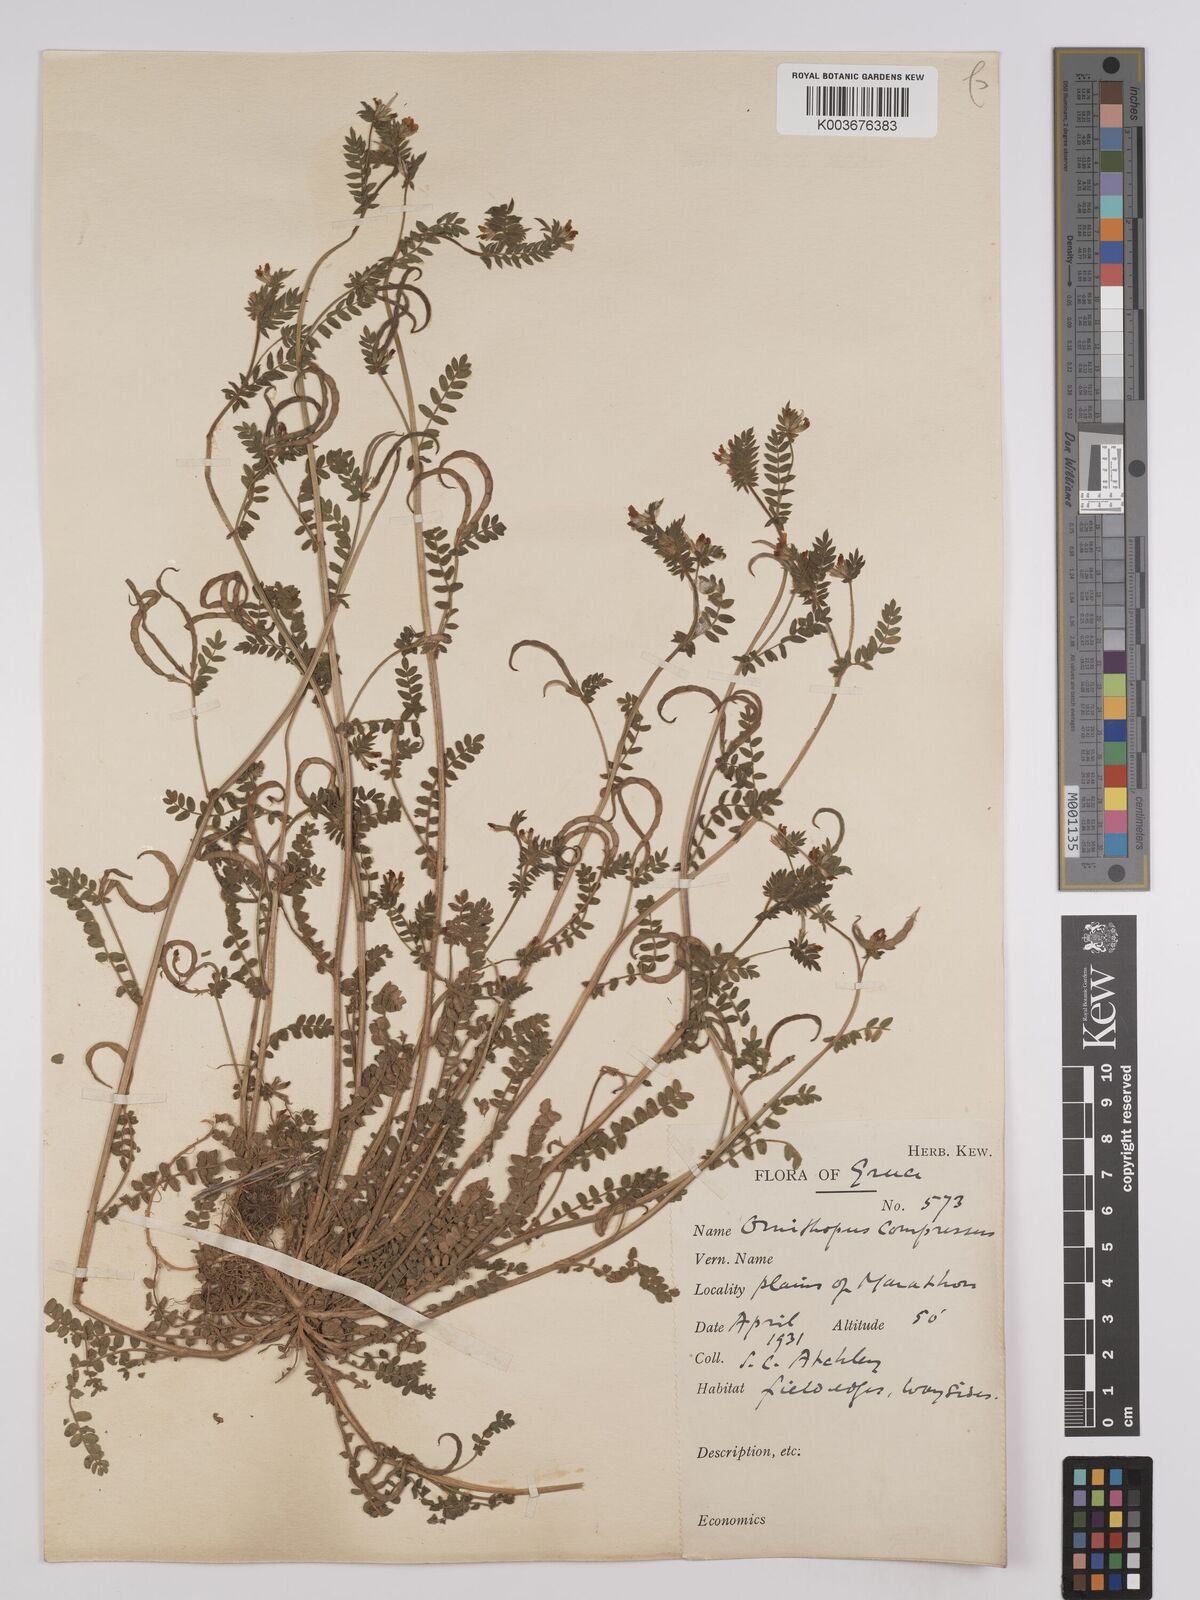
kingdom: Plantae
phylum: Tracheophyta
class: Magnoliopsida
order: Fabales
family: Fabaceae
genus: Ornithopus
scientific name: Ornithopus compressus
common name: Yellow serradella
